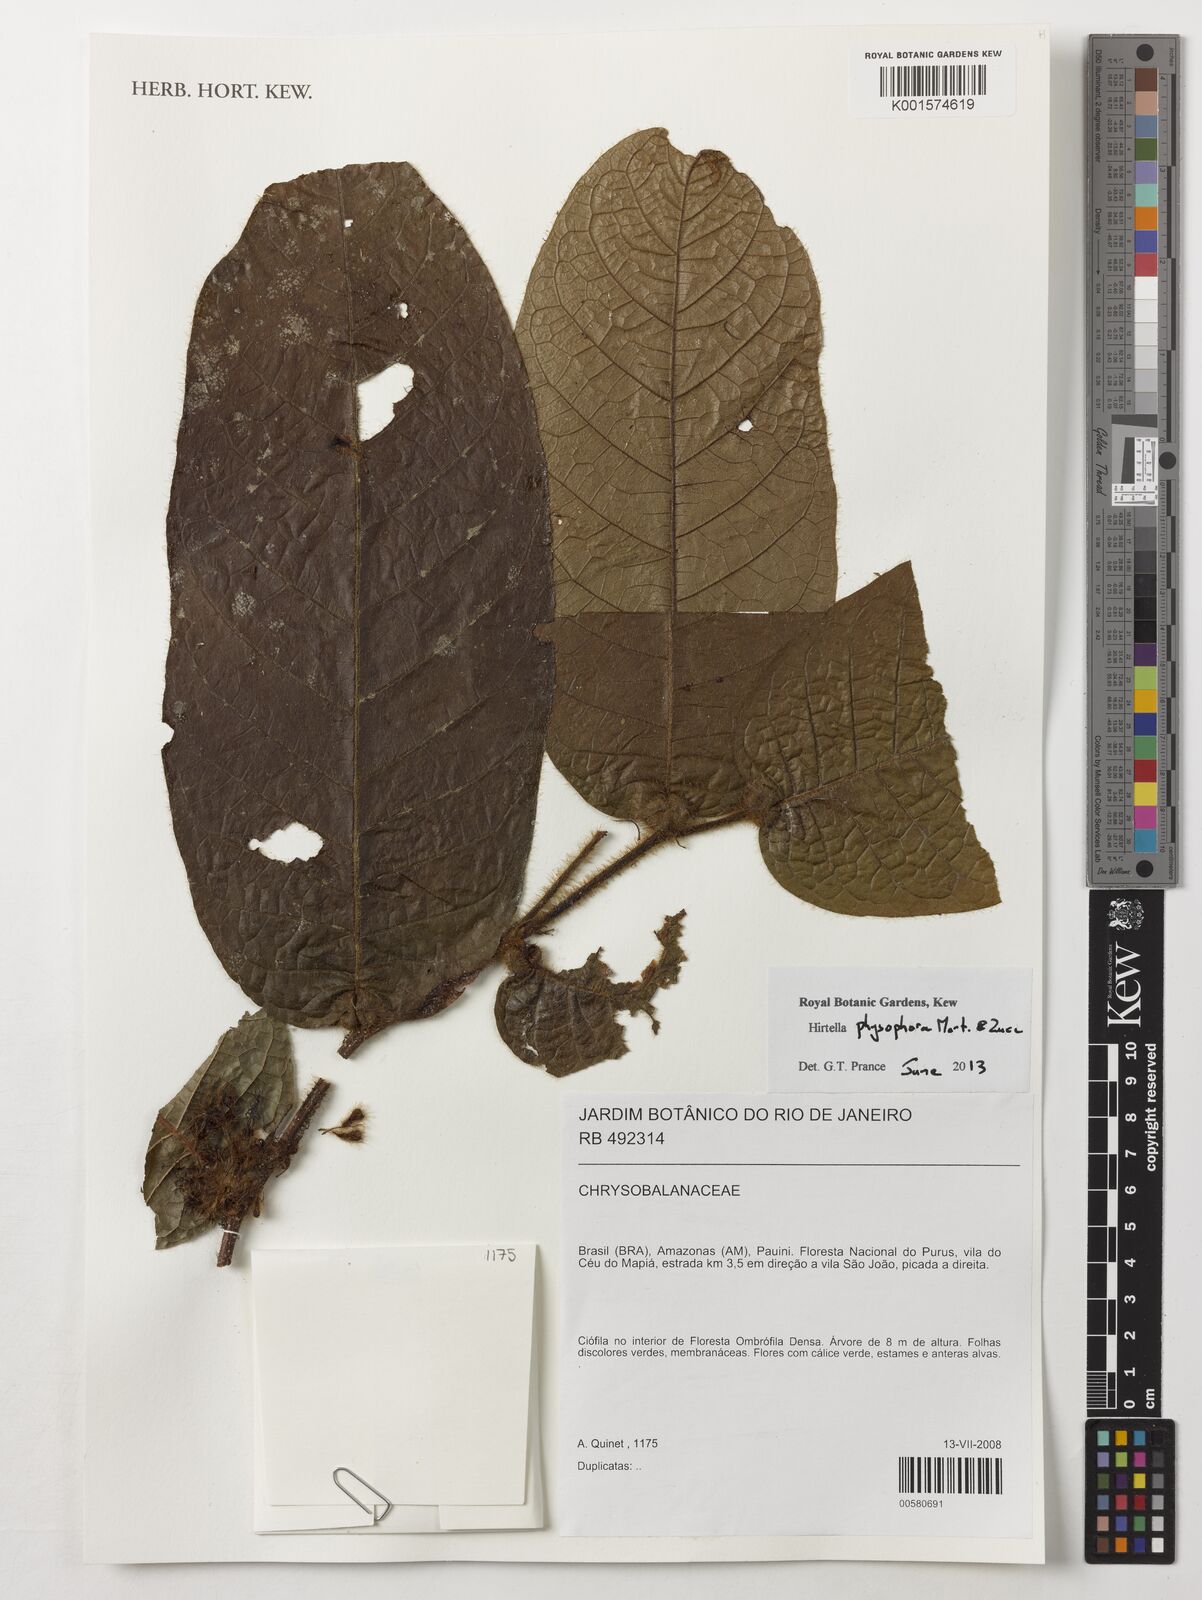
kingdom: Plantae
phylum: Tracheophyta
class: Magnoliopsida
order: Malpighiales
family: Chrysobalanaceae
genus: Hirtella
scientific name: Hirtella physophora
